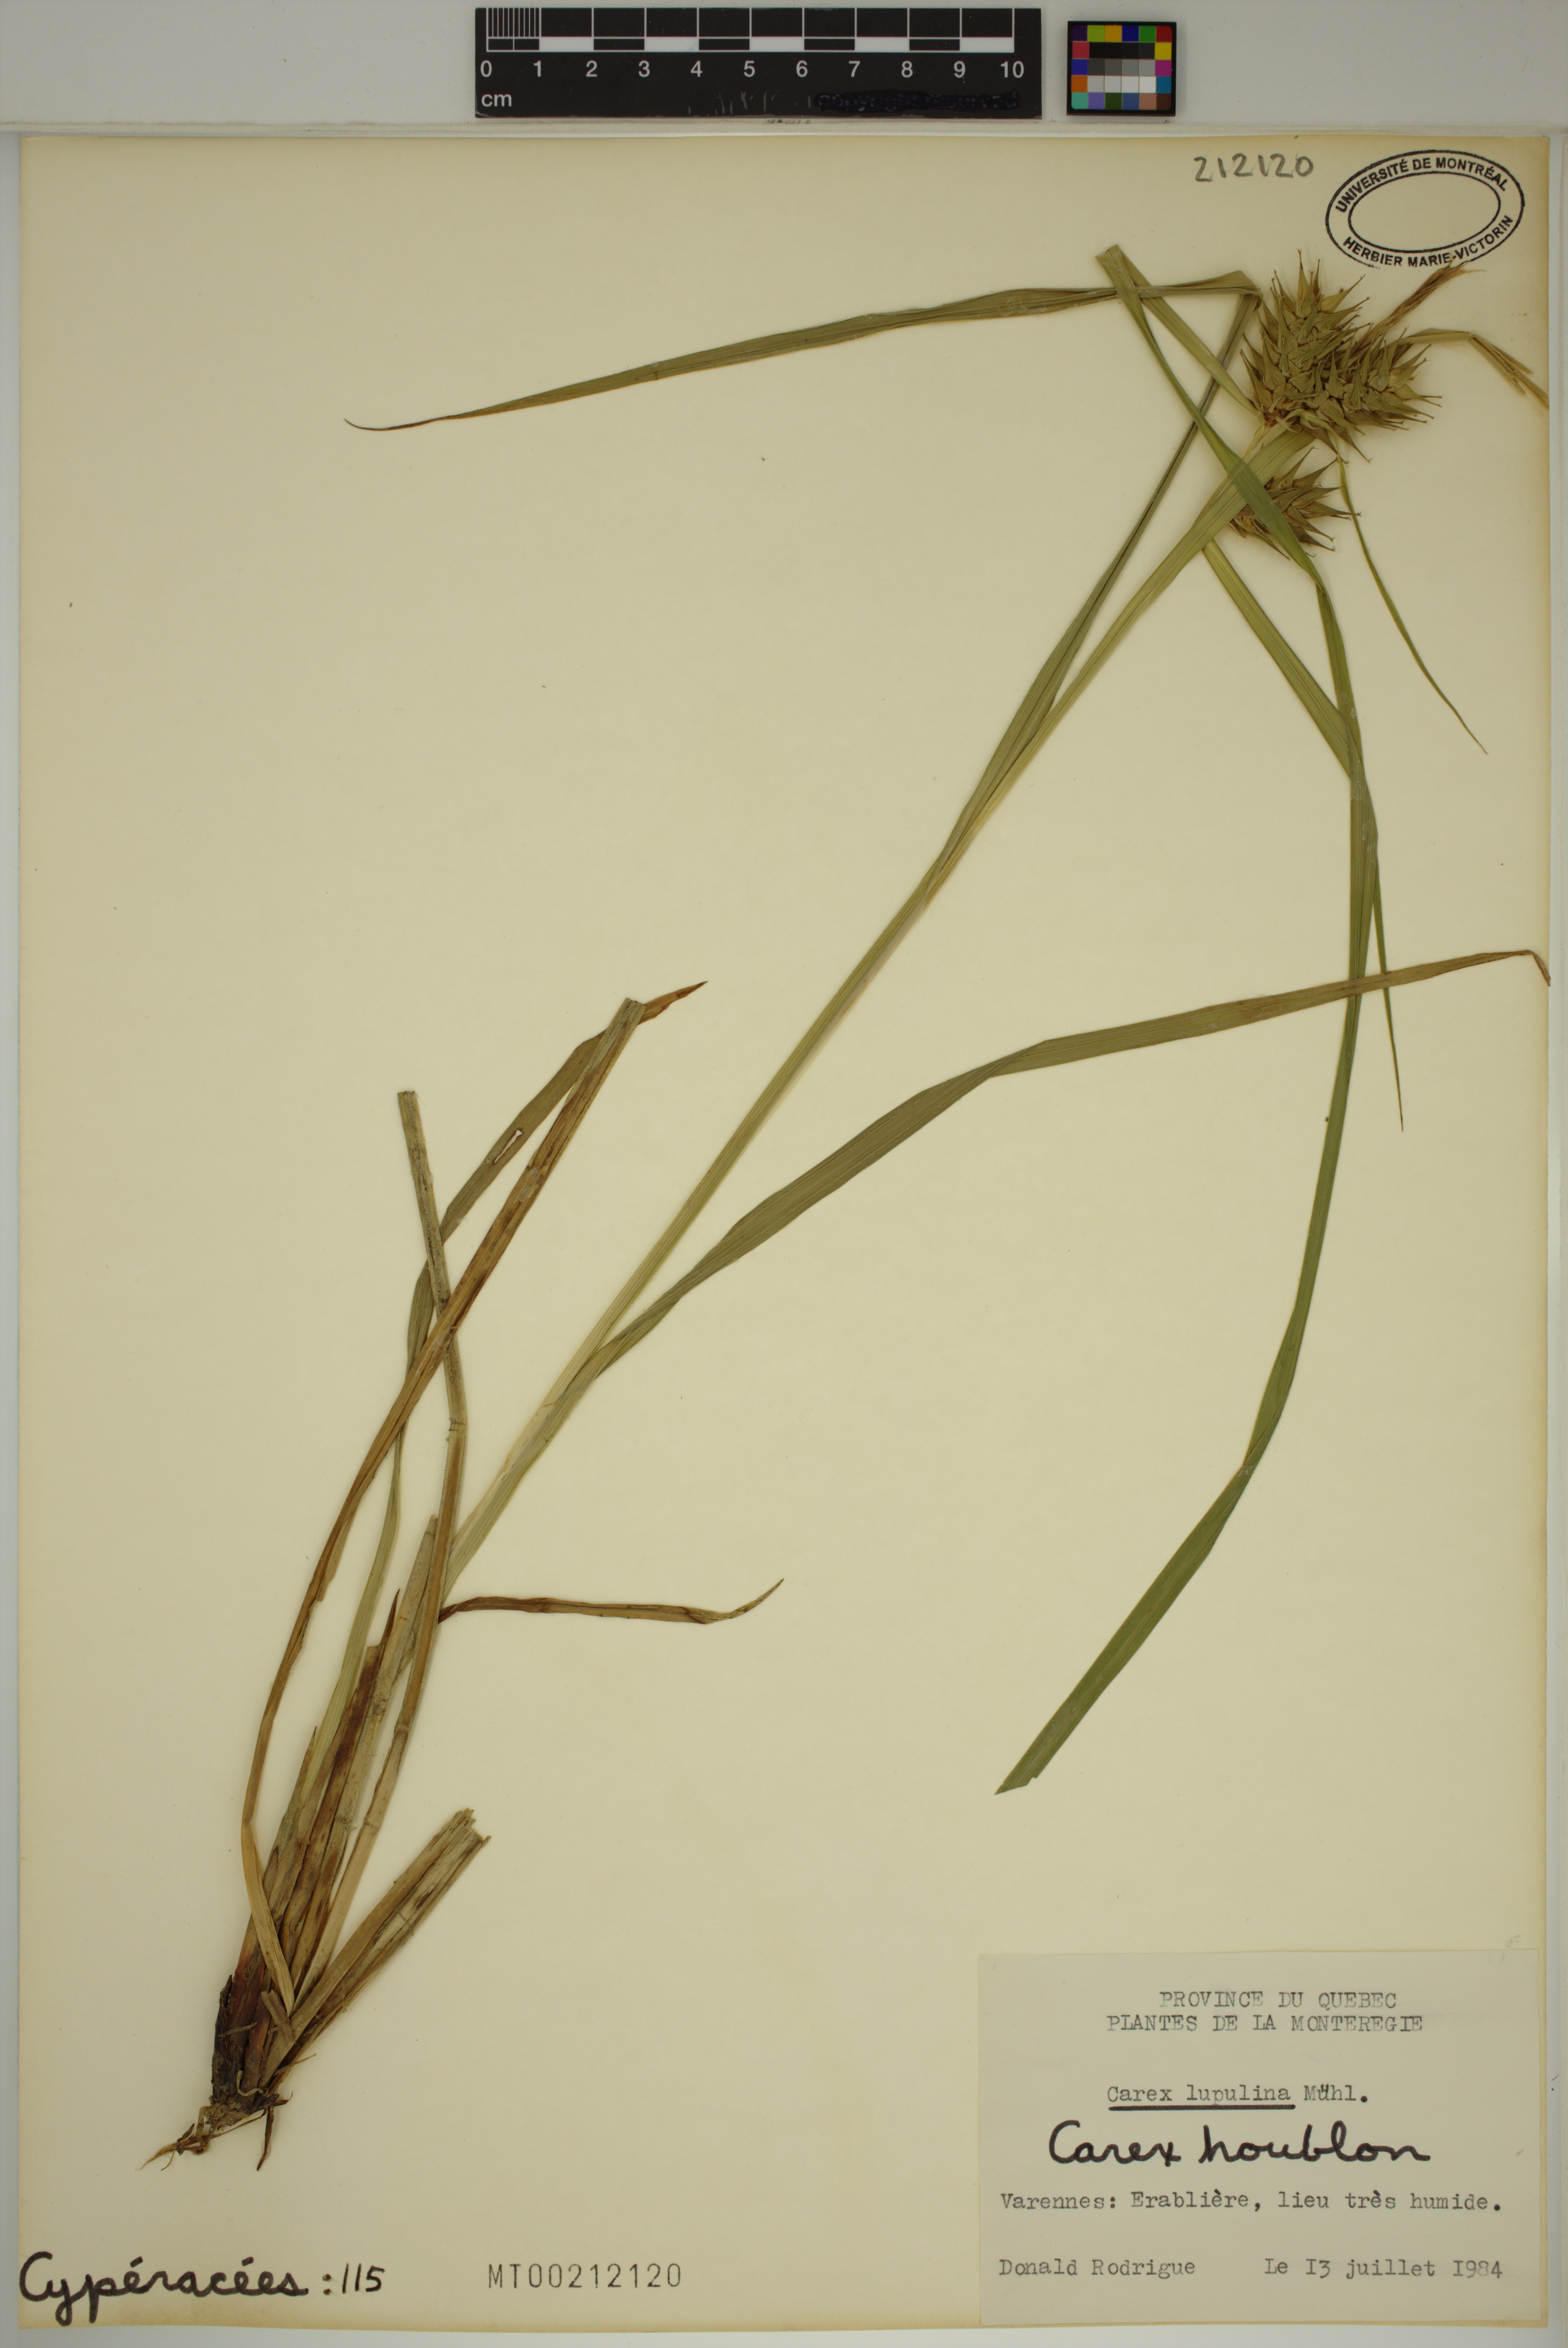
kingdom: Plantae
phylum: Tracheophyta
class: Liliopsida
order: Poales
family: Cyperaceae
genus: Carex
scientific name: Carex lupulina
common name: Hop sedge
